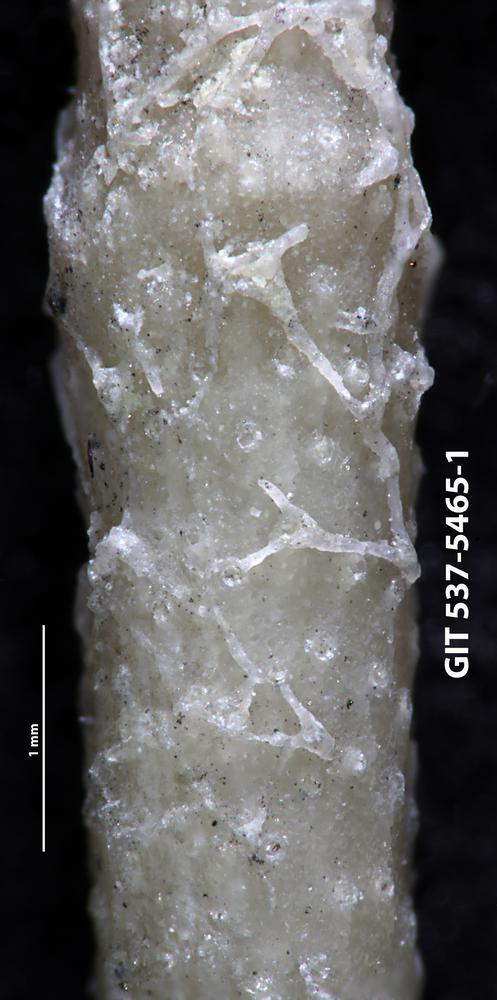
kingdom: Animalia
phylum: Bryozoa
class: Stenolaemata
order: Cyclostomatida
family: Corynotrypidae
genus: Corynotrypa
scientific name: Corynotrypa
